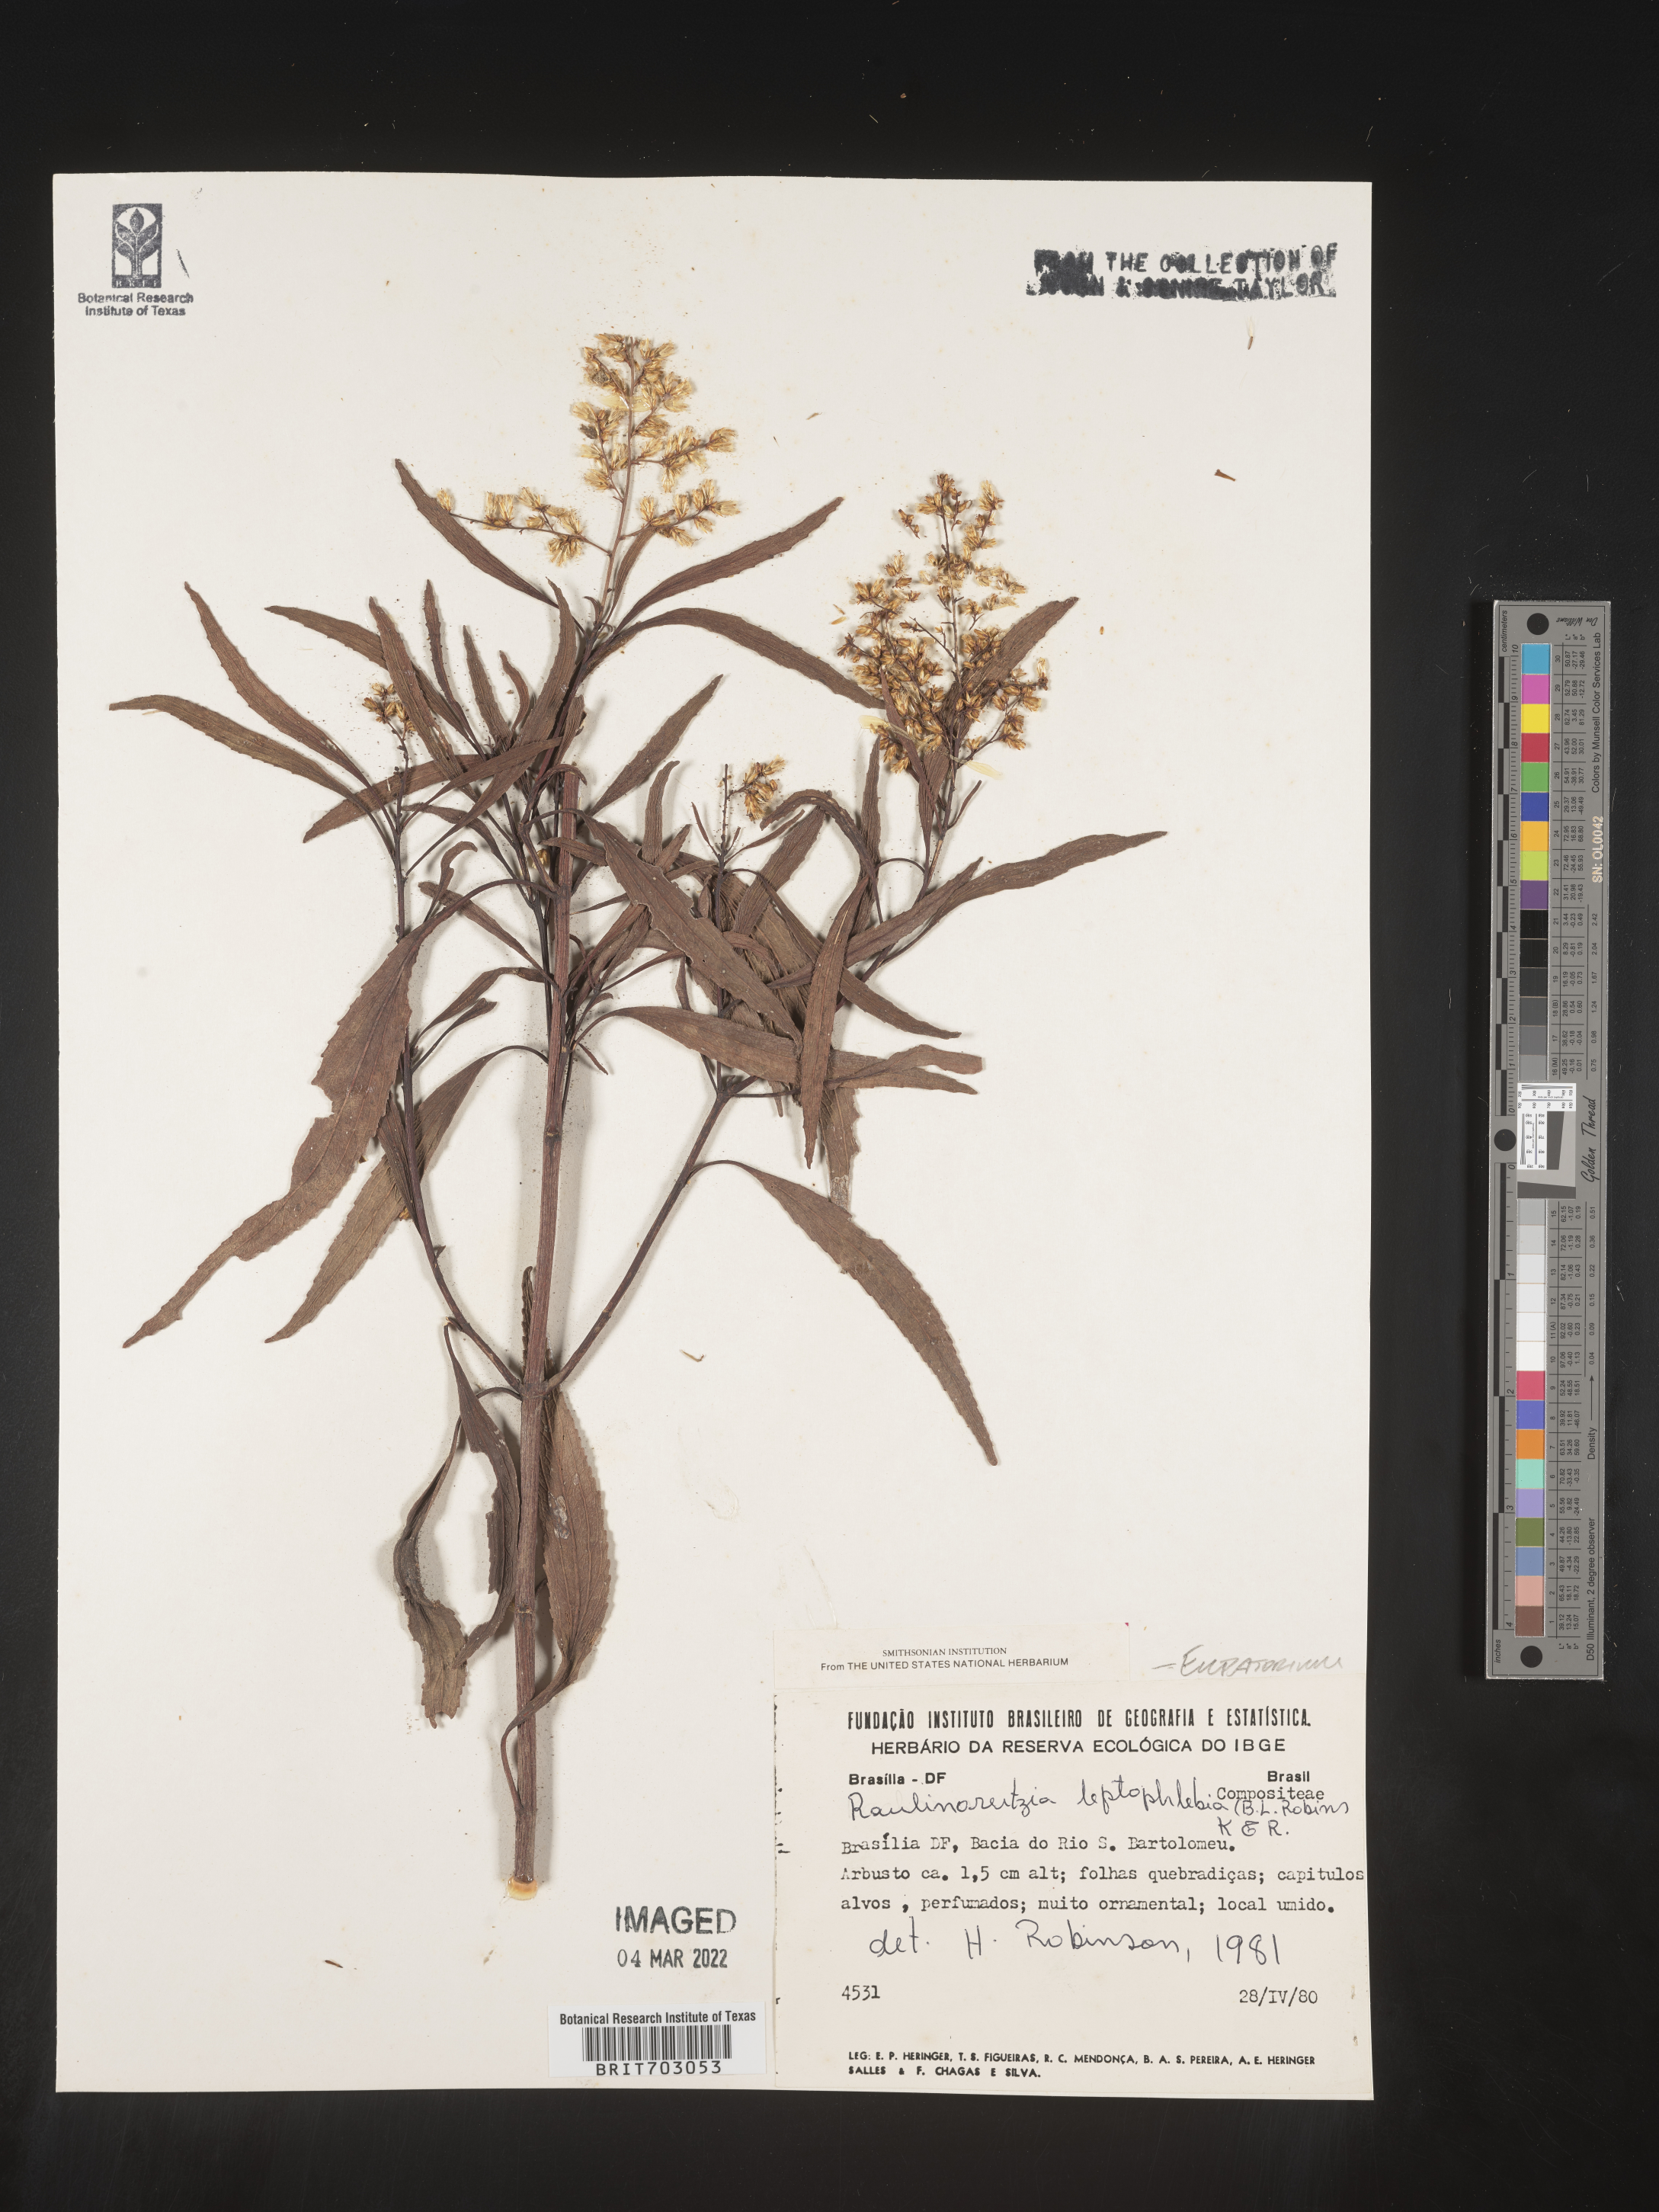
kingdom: Plantae
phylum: Tracheophyta
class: Magnoliopsida
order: Asterales
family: Asteraceae
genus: Eupatorium
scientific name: Eupatorium
